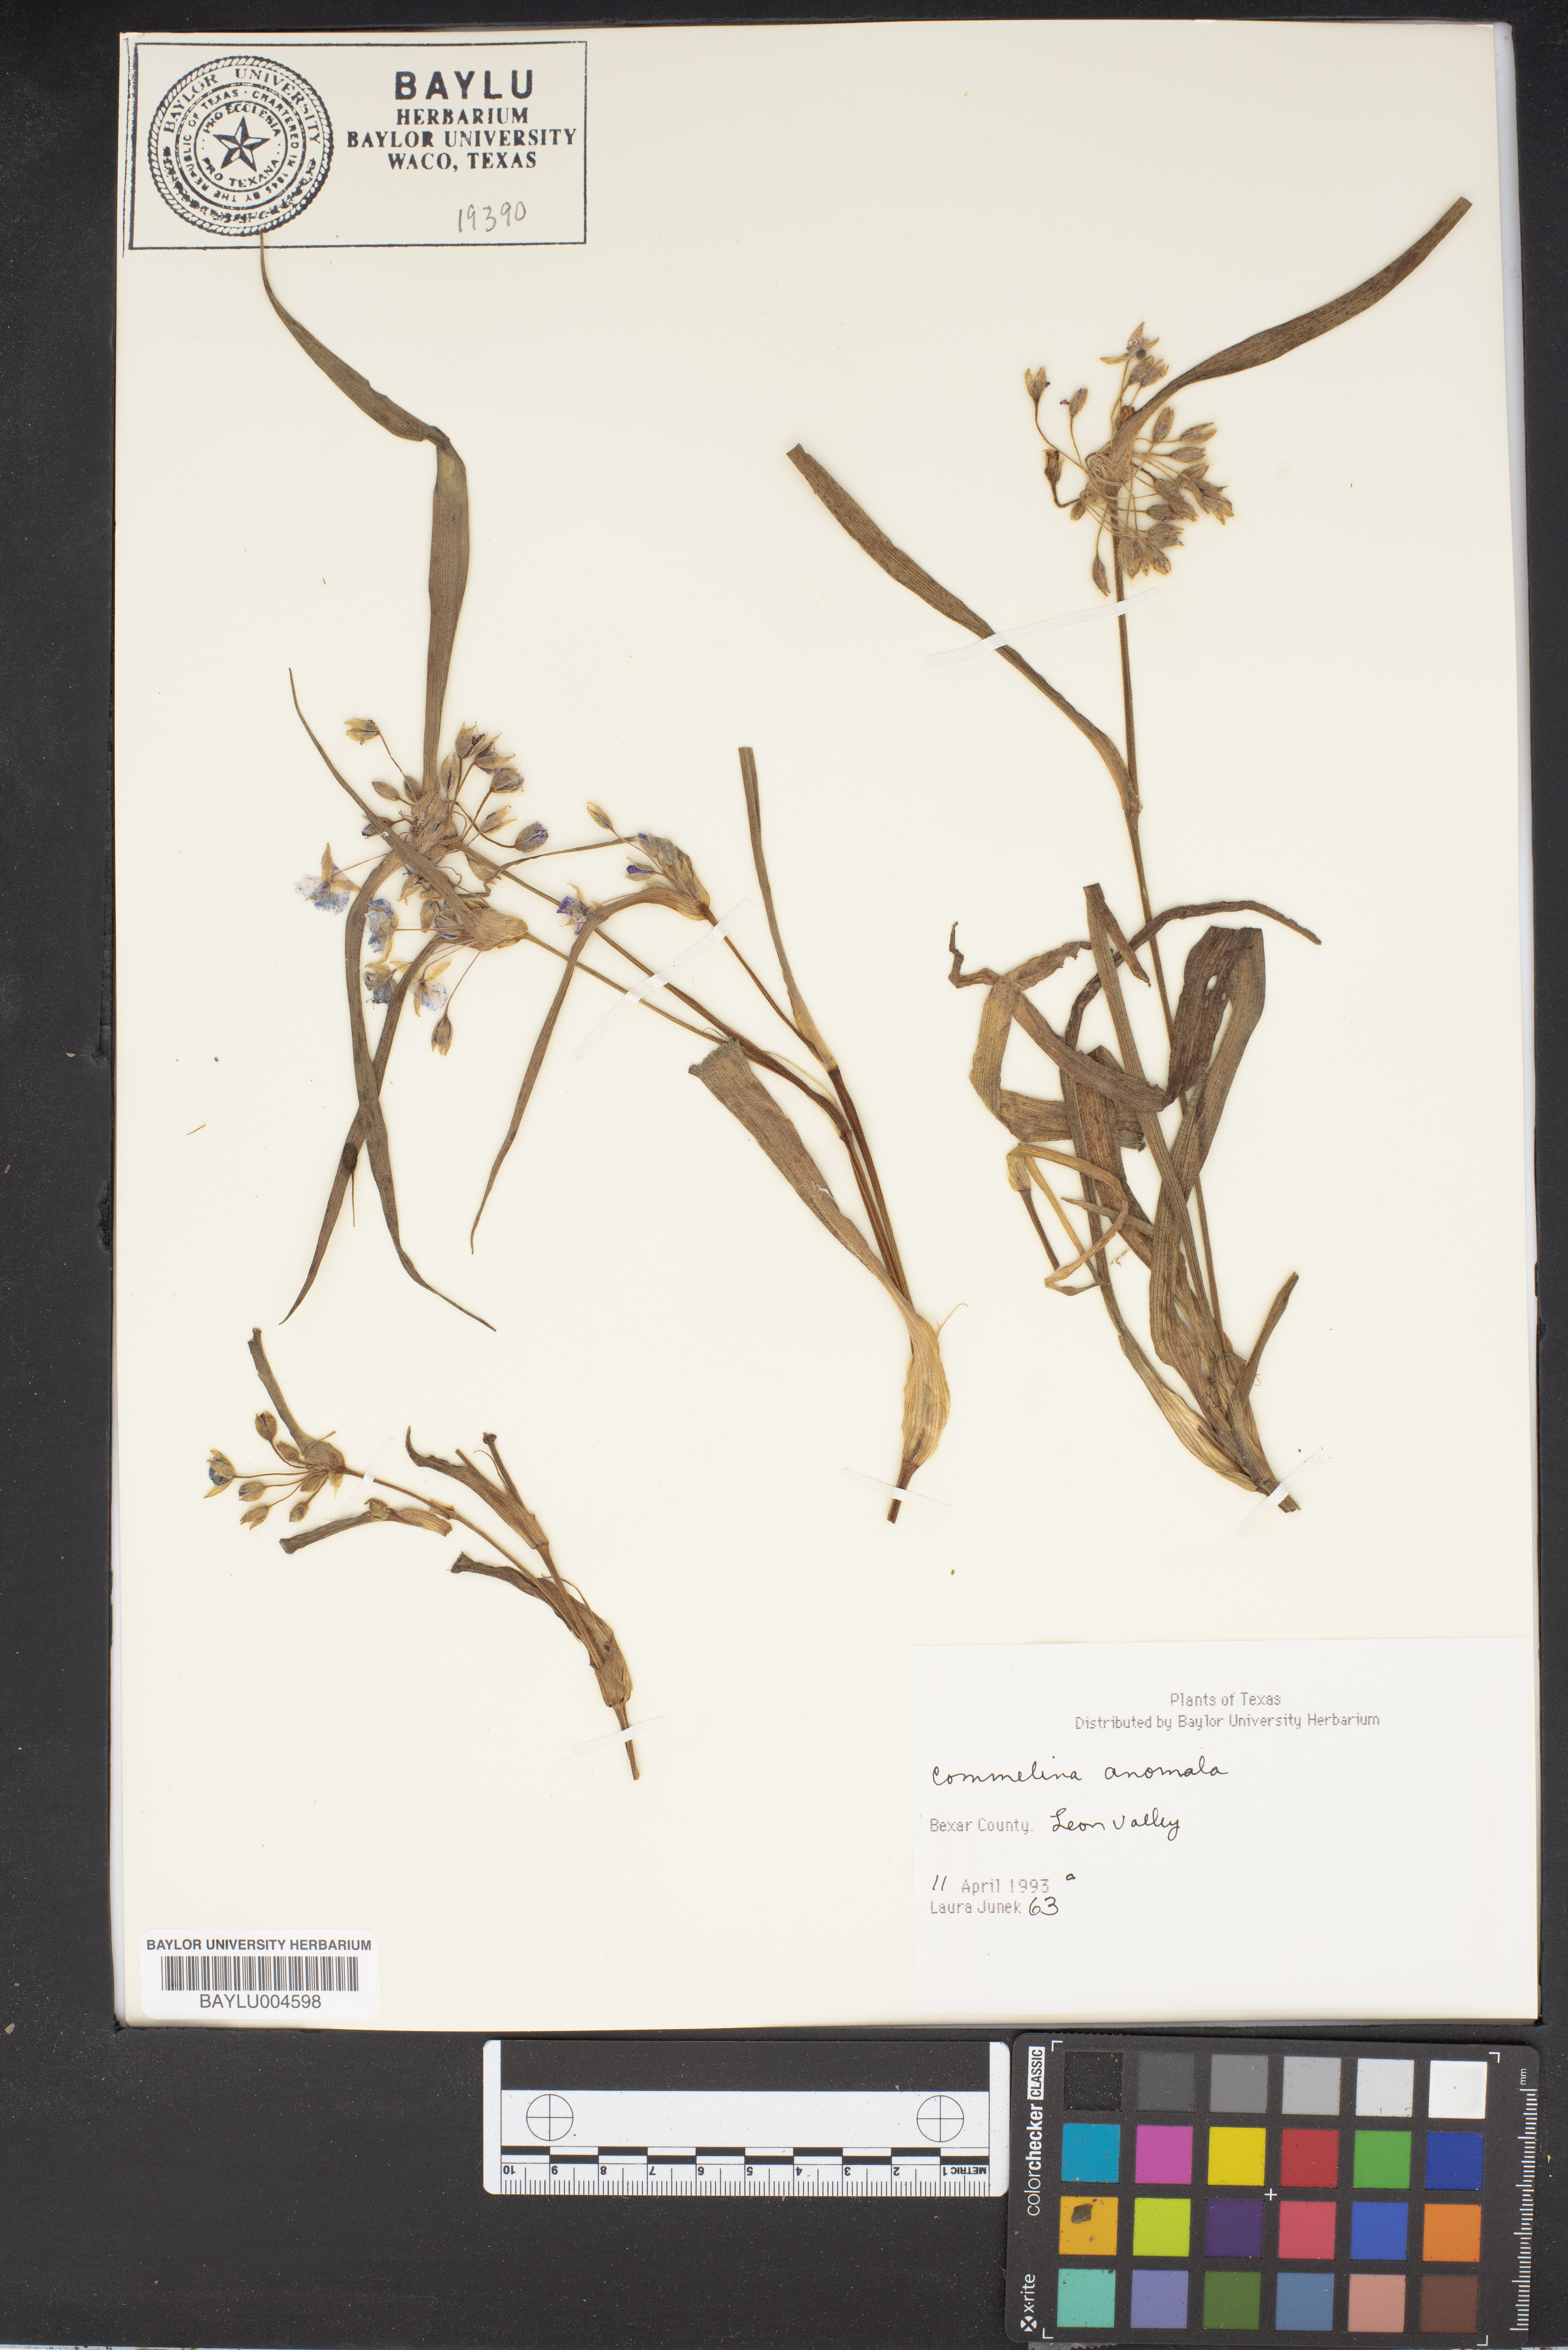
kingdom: Plantae
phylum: Tracheophyta
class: Liliopsida
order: Commelinales
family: Commelinaceae
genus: Tinantia
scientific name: Tinantia anomala
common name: False dayflower
